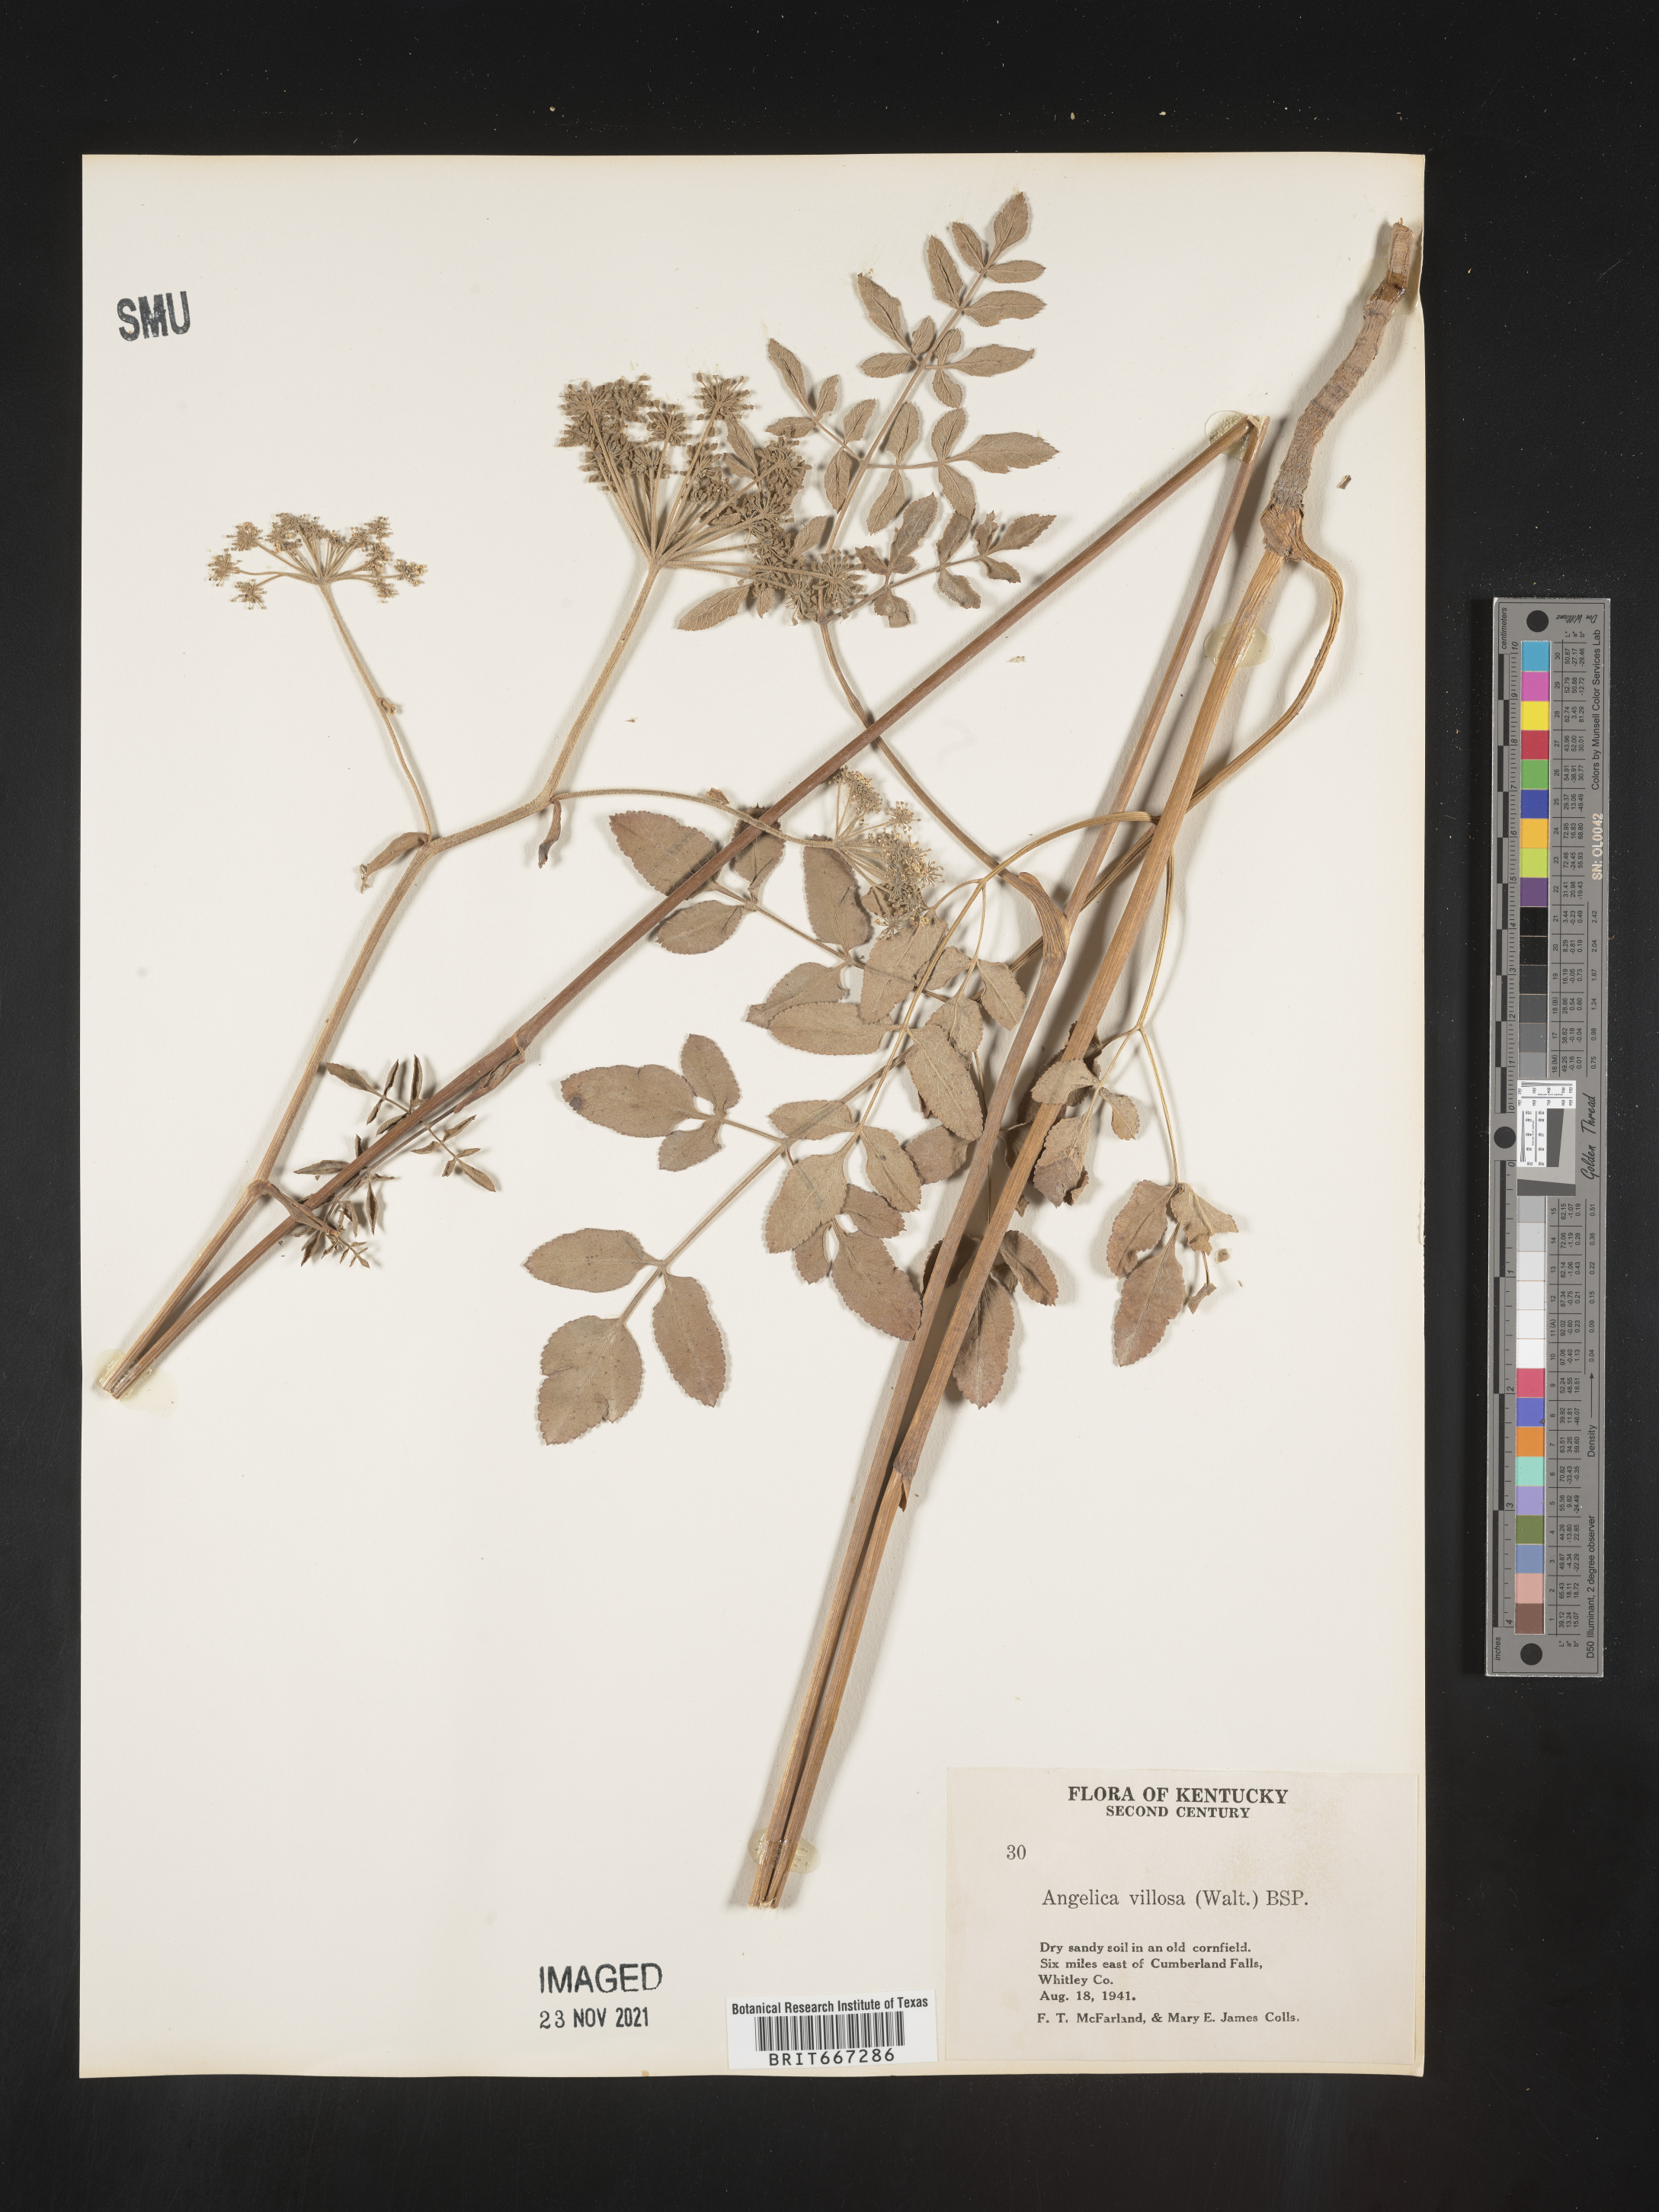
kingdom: Plantae
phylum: Tracheophyta
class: Magnoliopsida
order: Apiales
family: Apiaceae
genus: Angelica
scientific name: Angelica venenosa
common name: Hairy angelica
